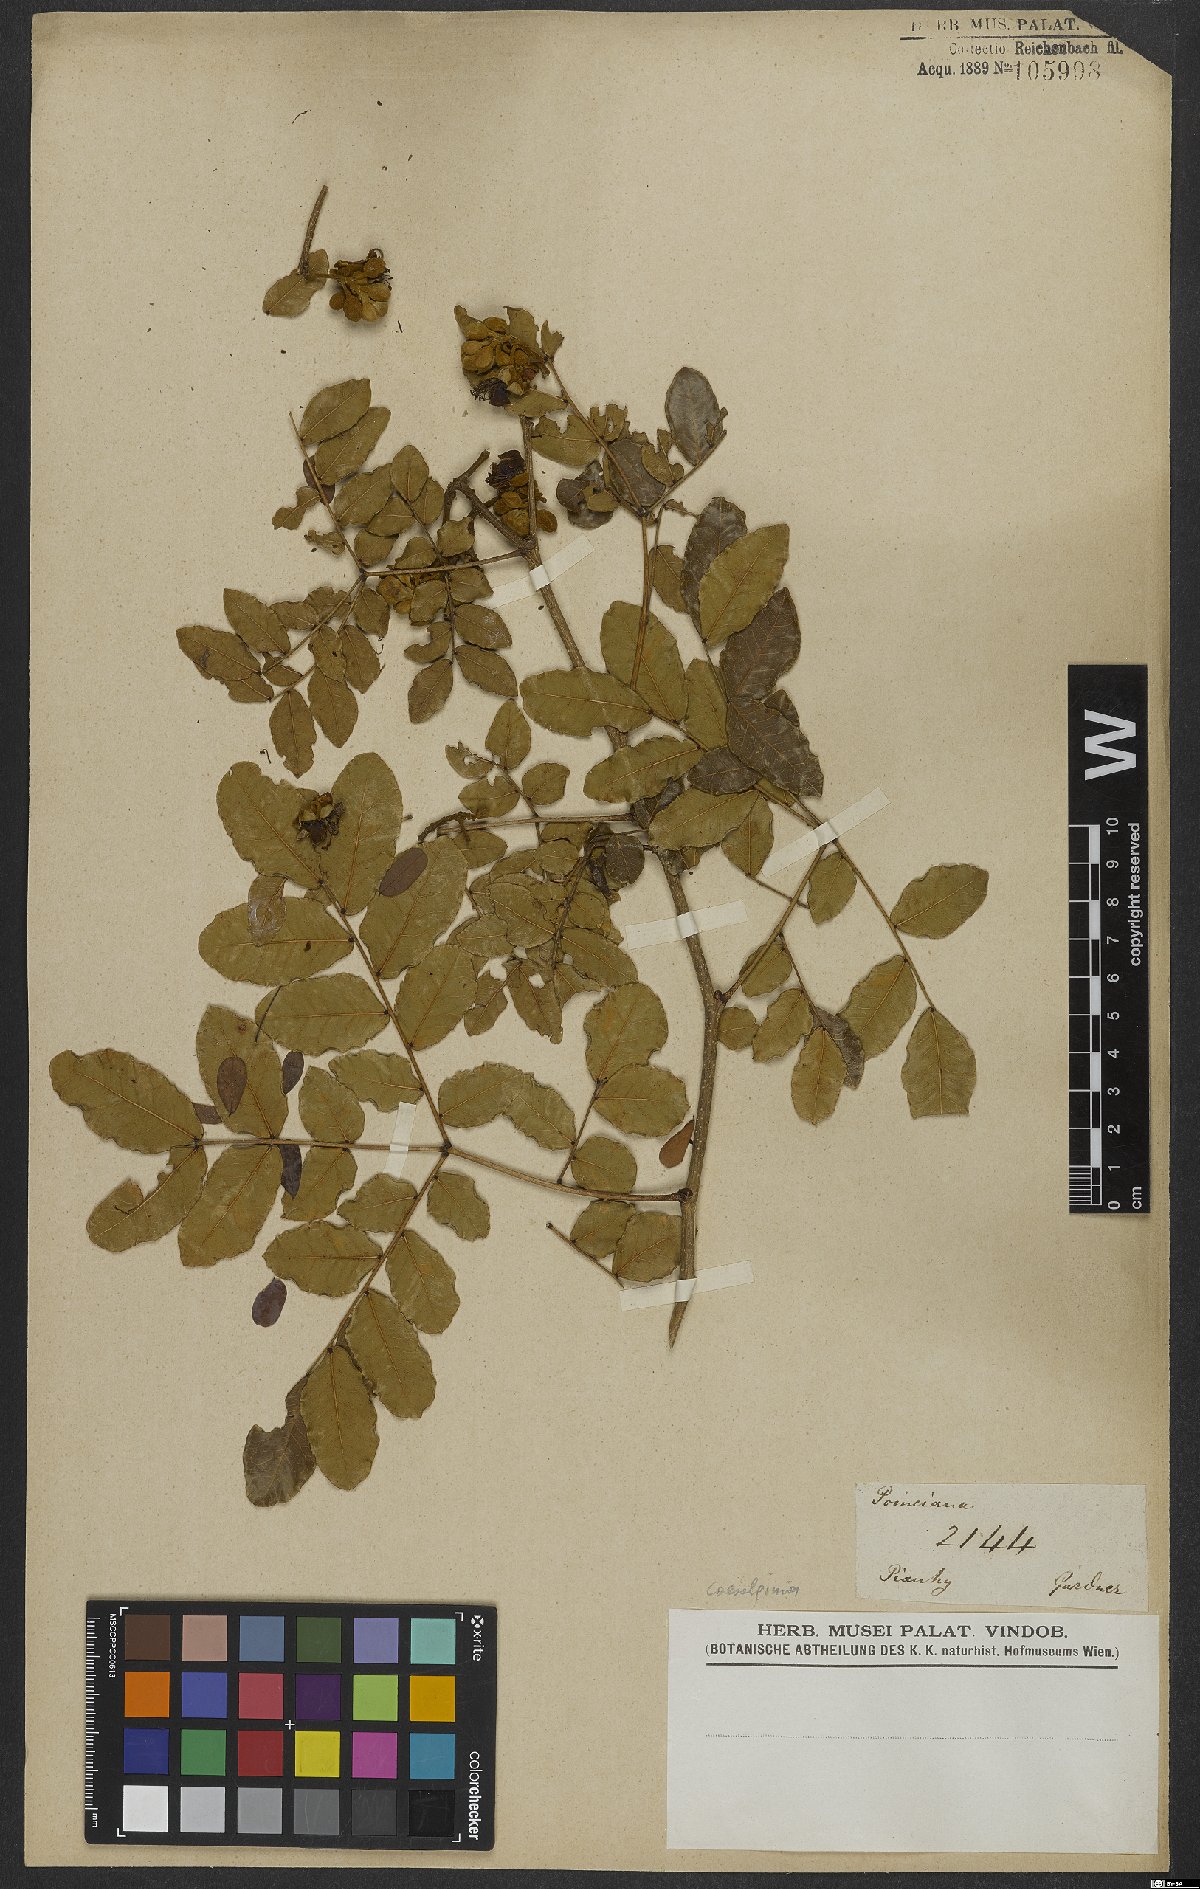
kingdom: Plantae
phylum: Tracheophyta
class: Magnoliopsida
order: Fabales
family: Fabaceae
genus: Caesalpinia
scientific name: Caesalpinia
